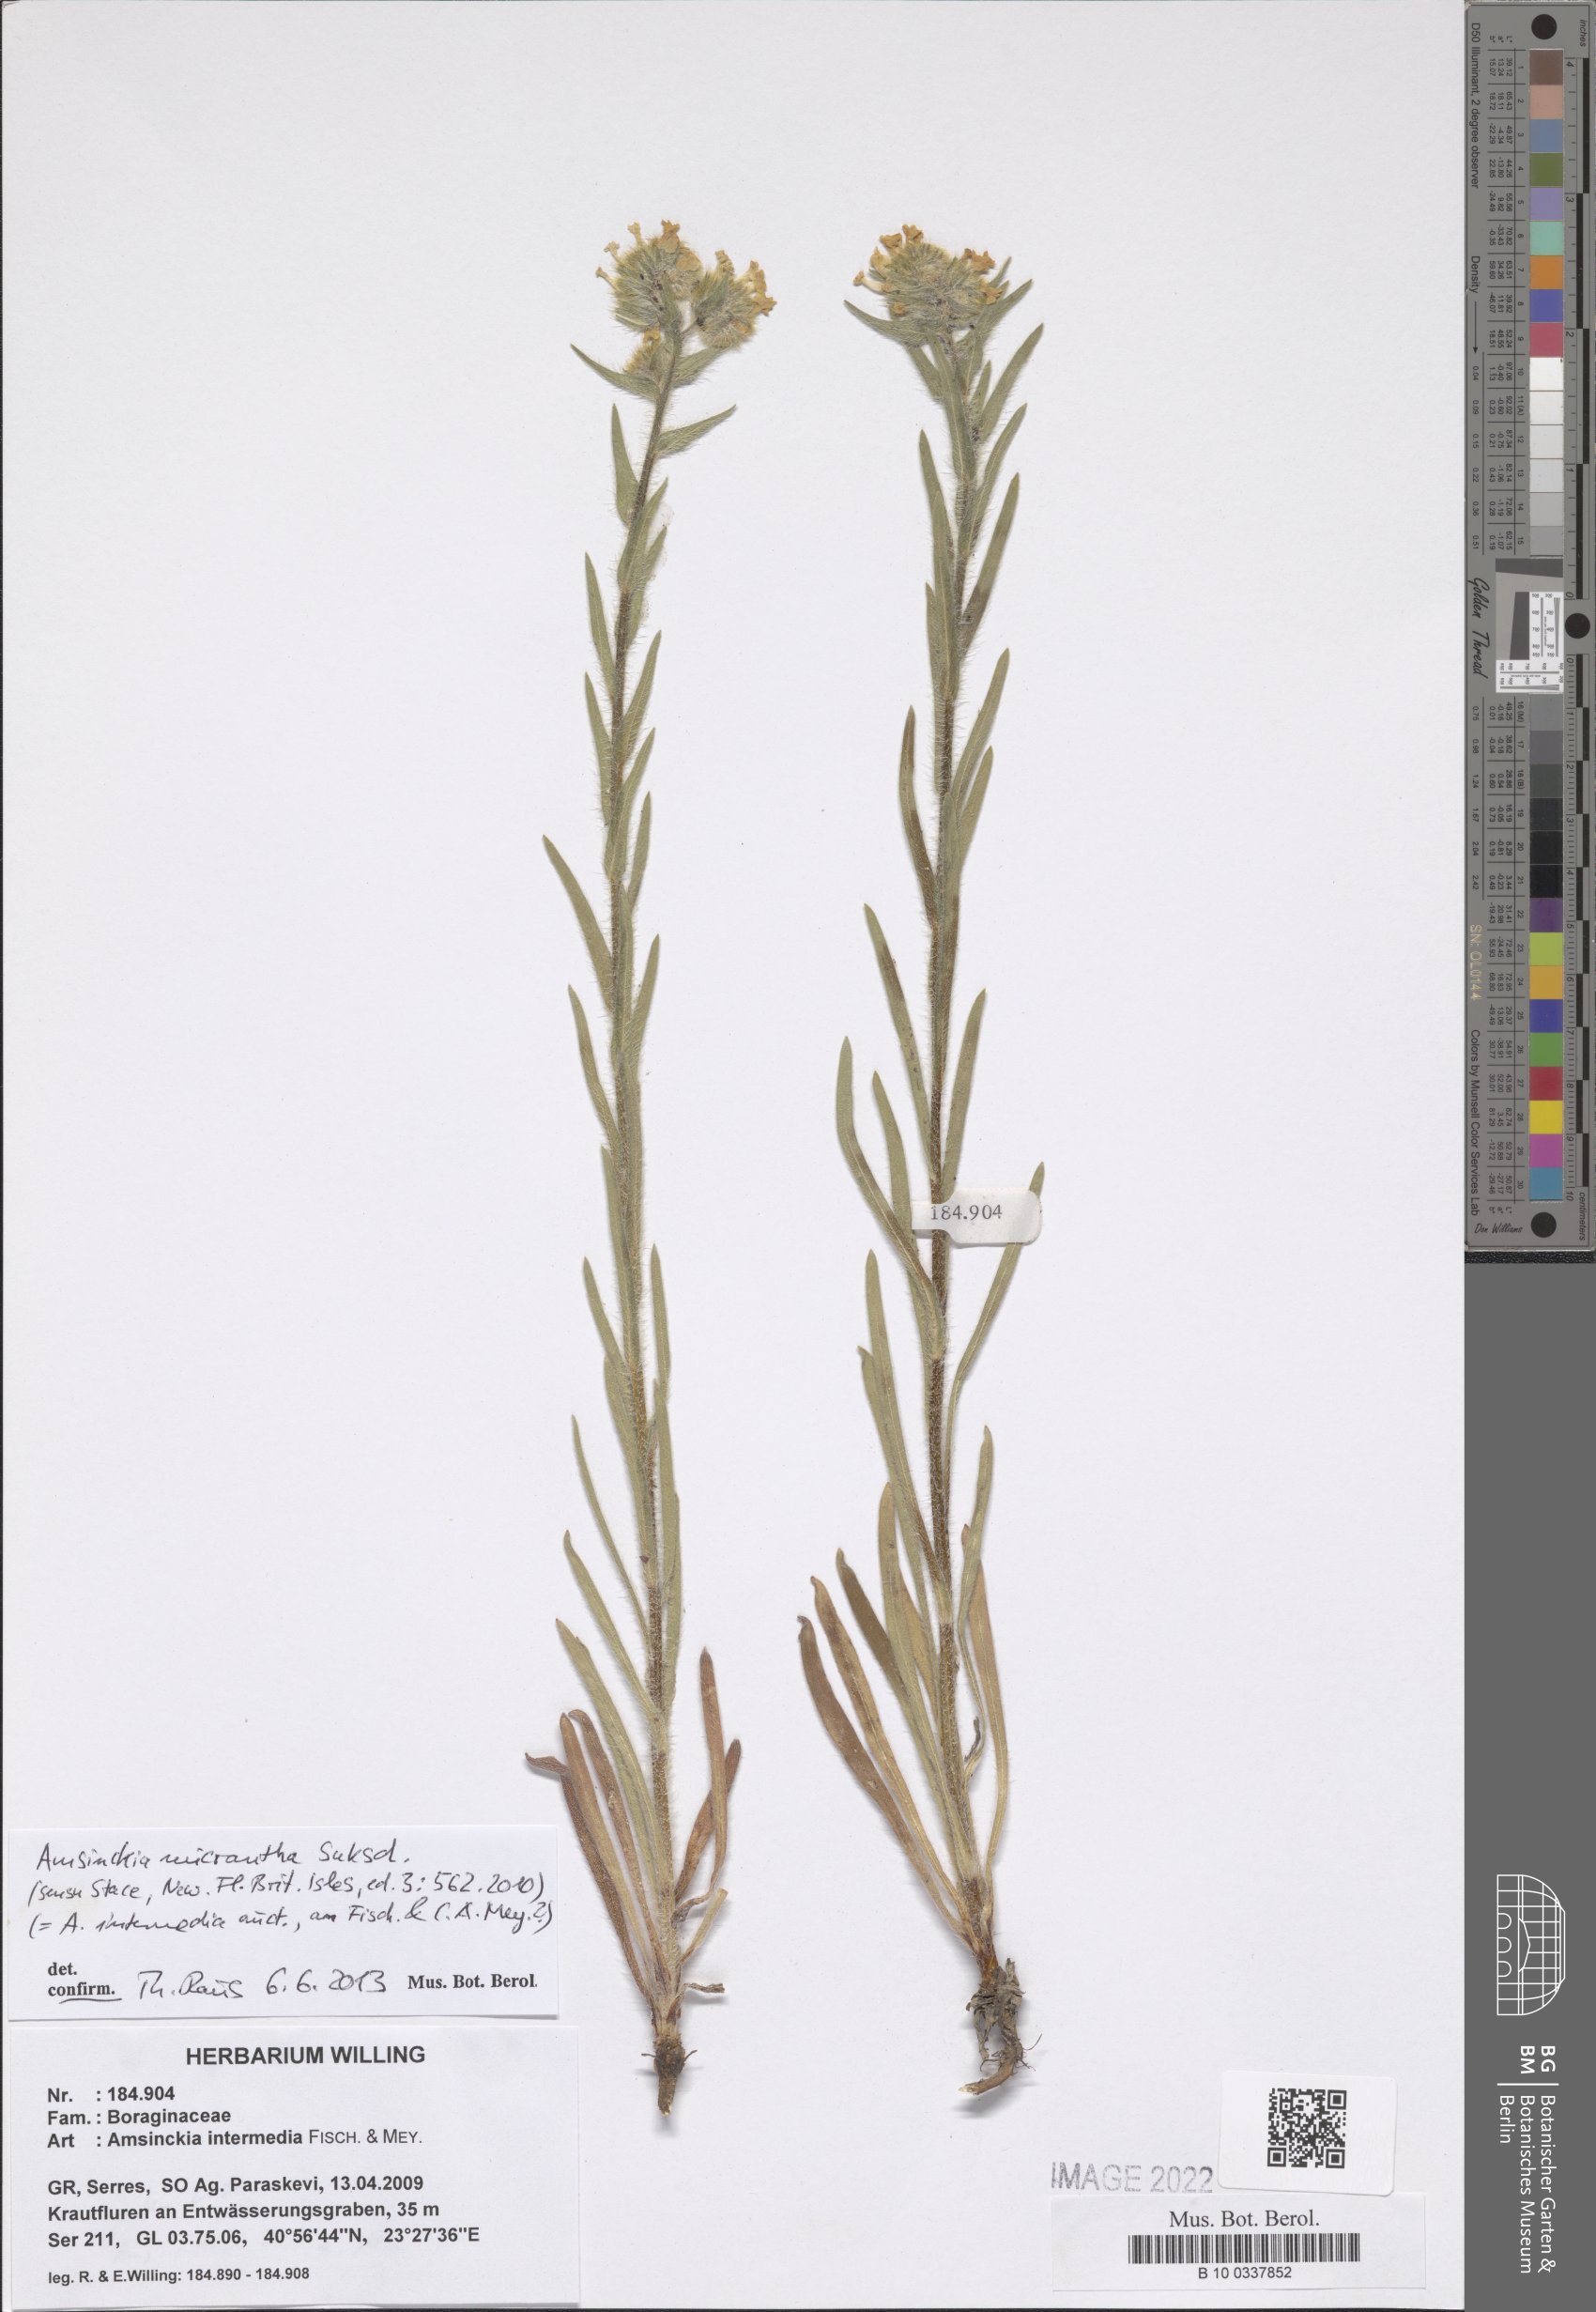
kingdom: Plantae
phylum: Tracheophyta
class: Magnoliopsida
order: Boraginales
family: Boraginaceae
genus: Amsinckia
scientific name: Amsinckia menziesii
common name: Menzies' fiddleneck
